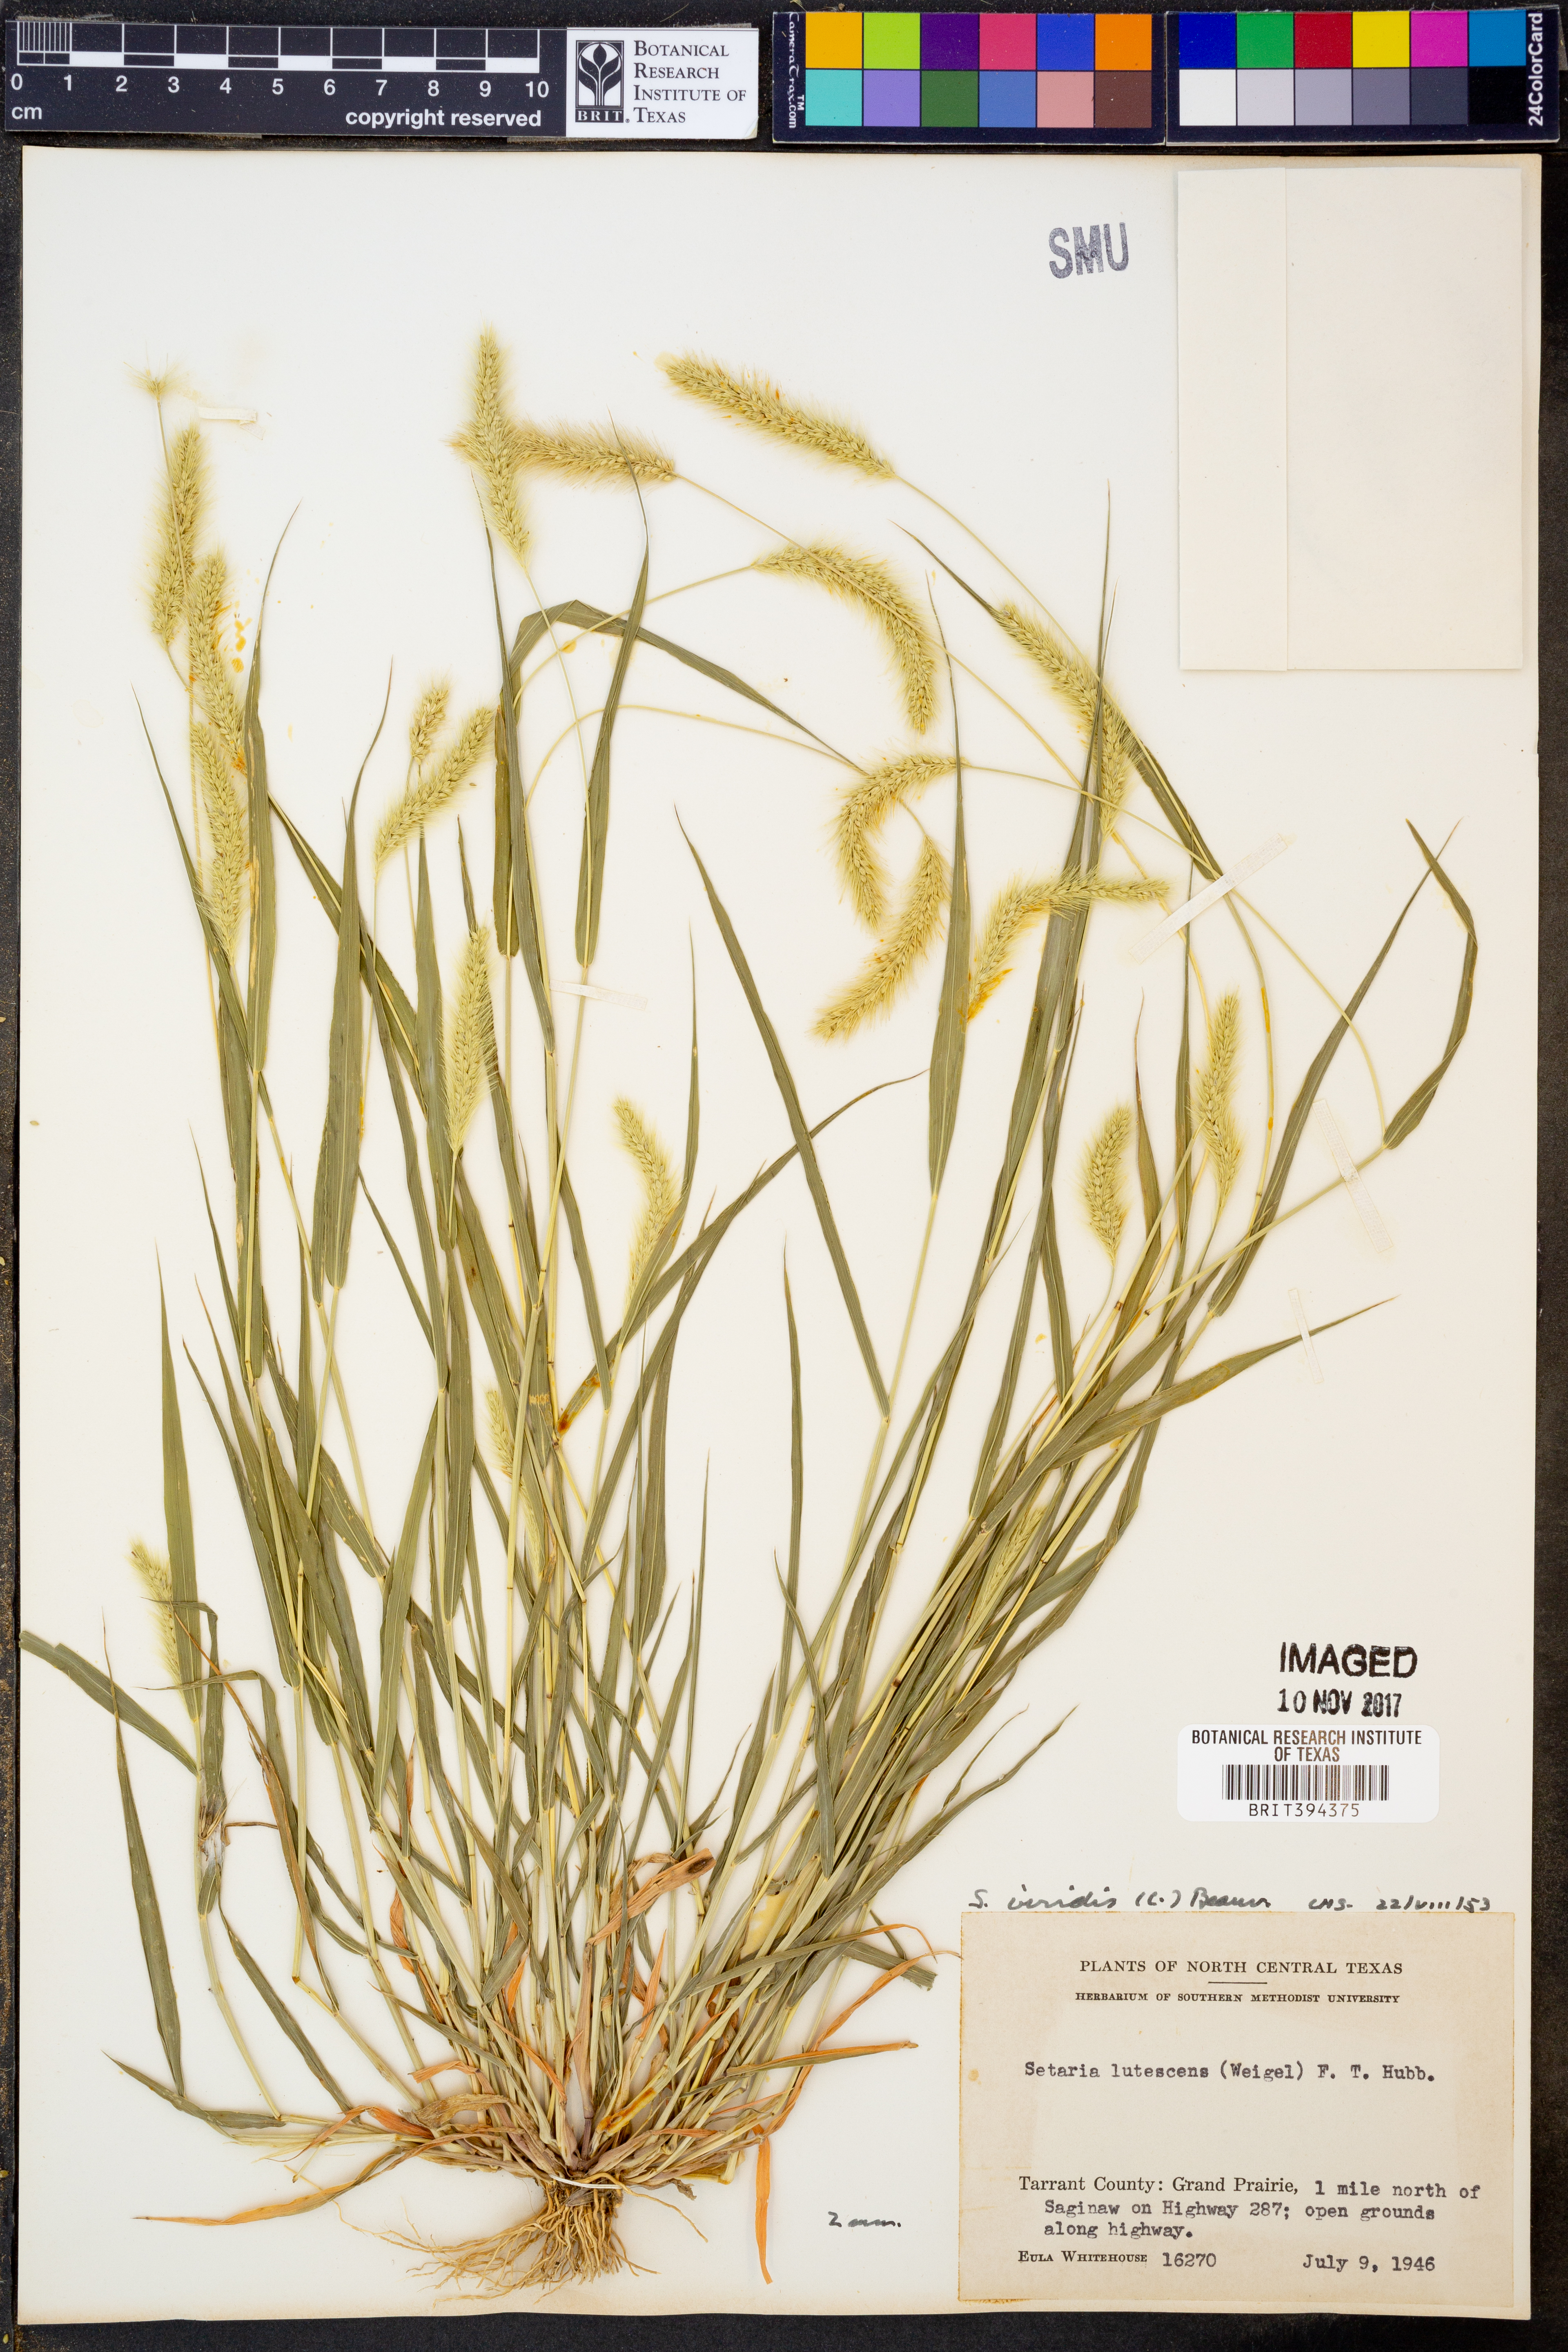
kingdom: Plantae
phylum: Tracheophyta
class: Liliopsida
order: Poales
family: Poaceae
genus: Setaria
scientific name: Setaria viridis
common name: Green bristlegrass
